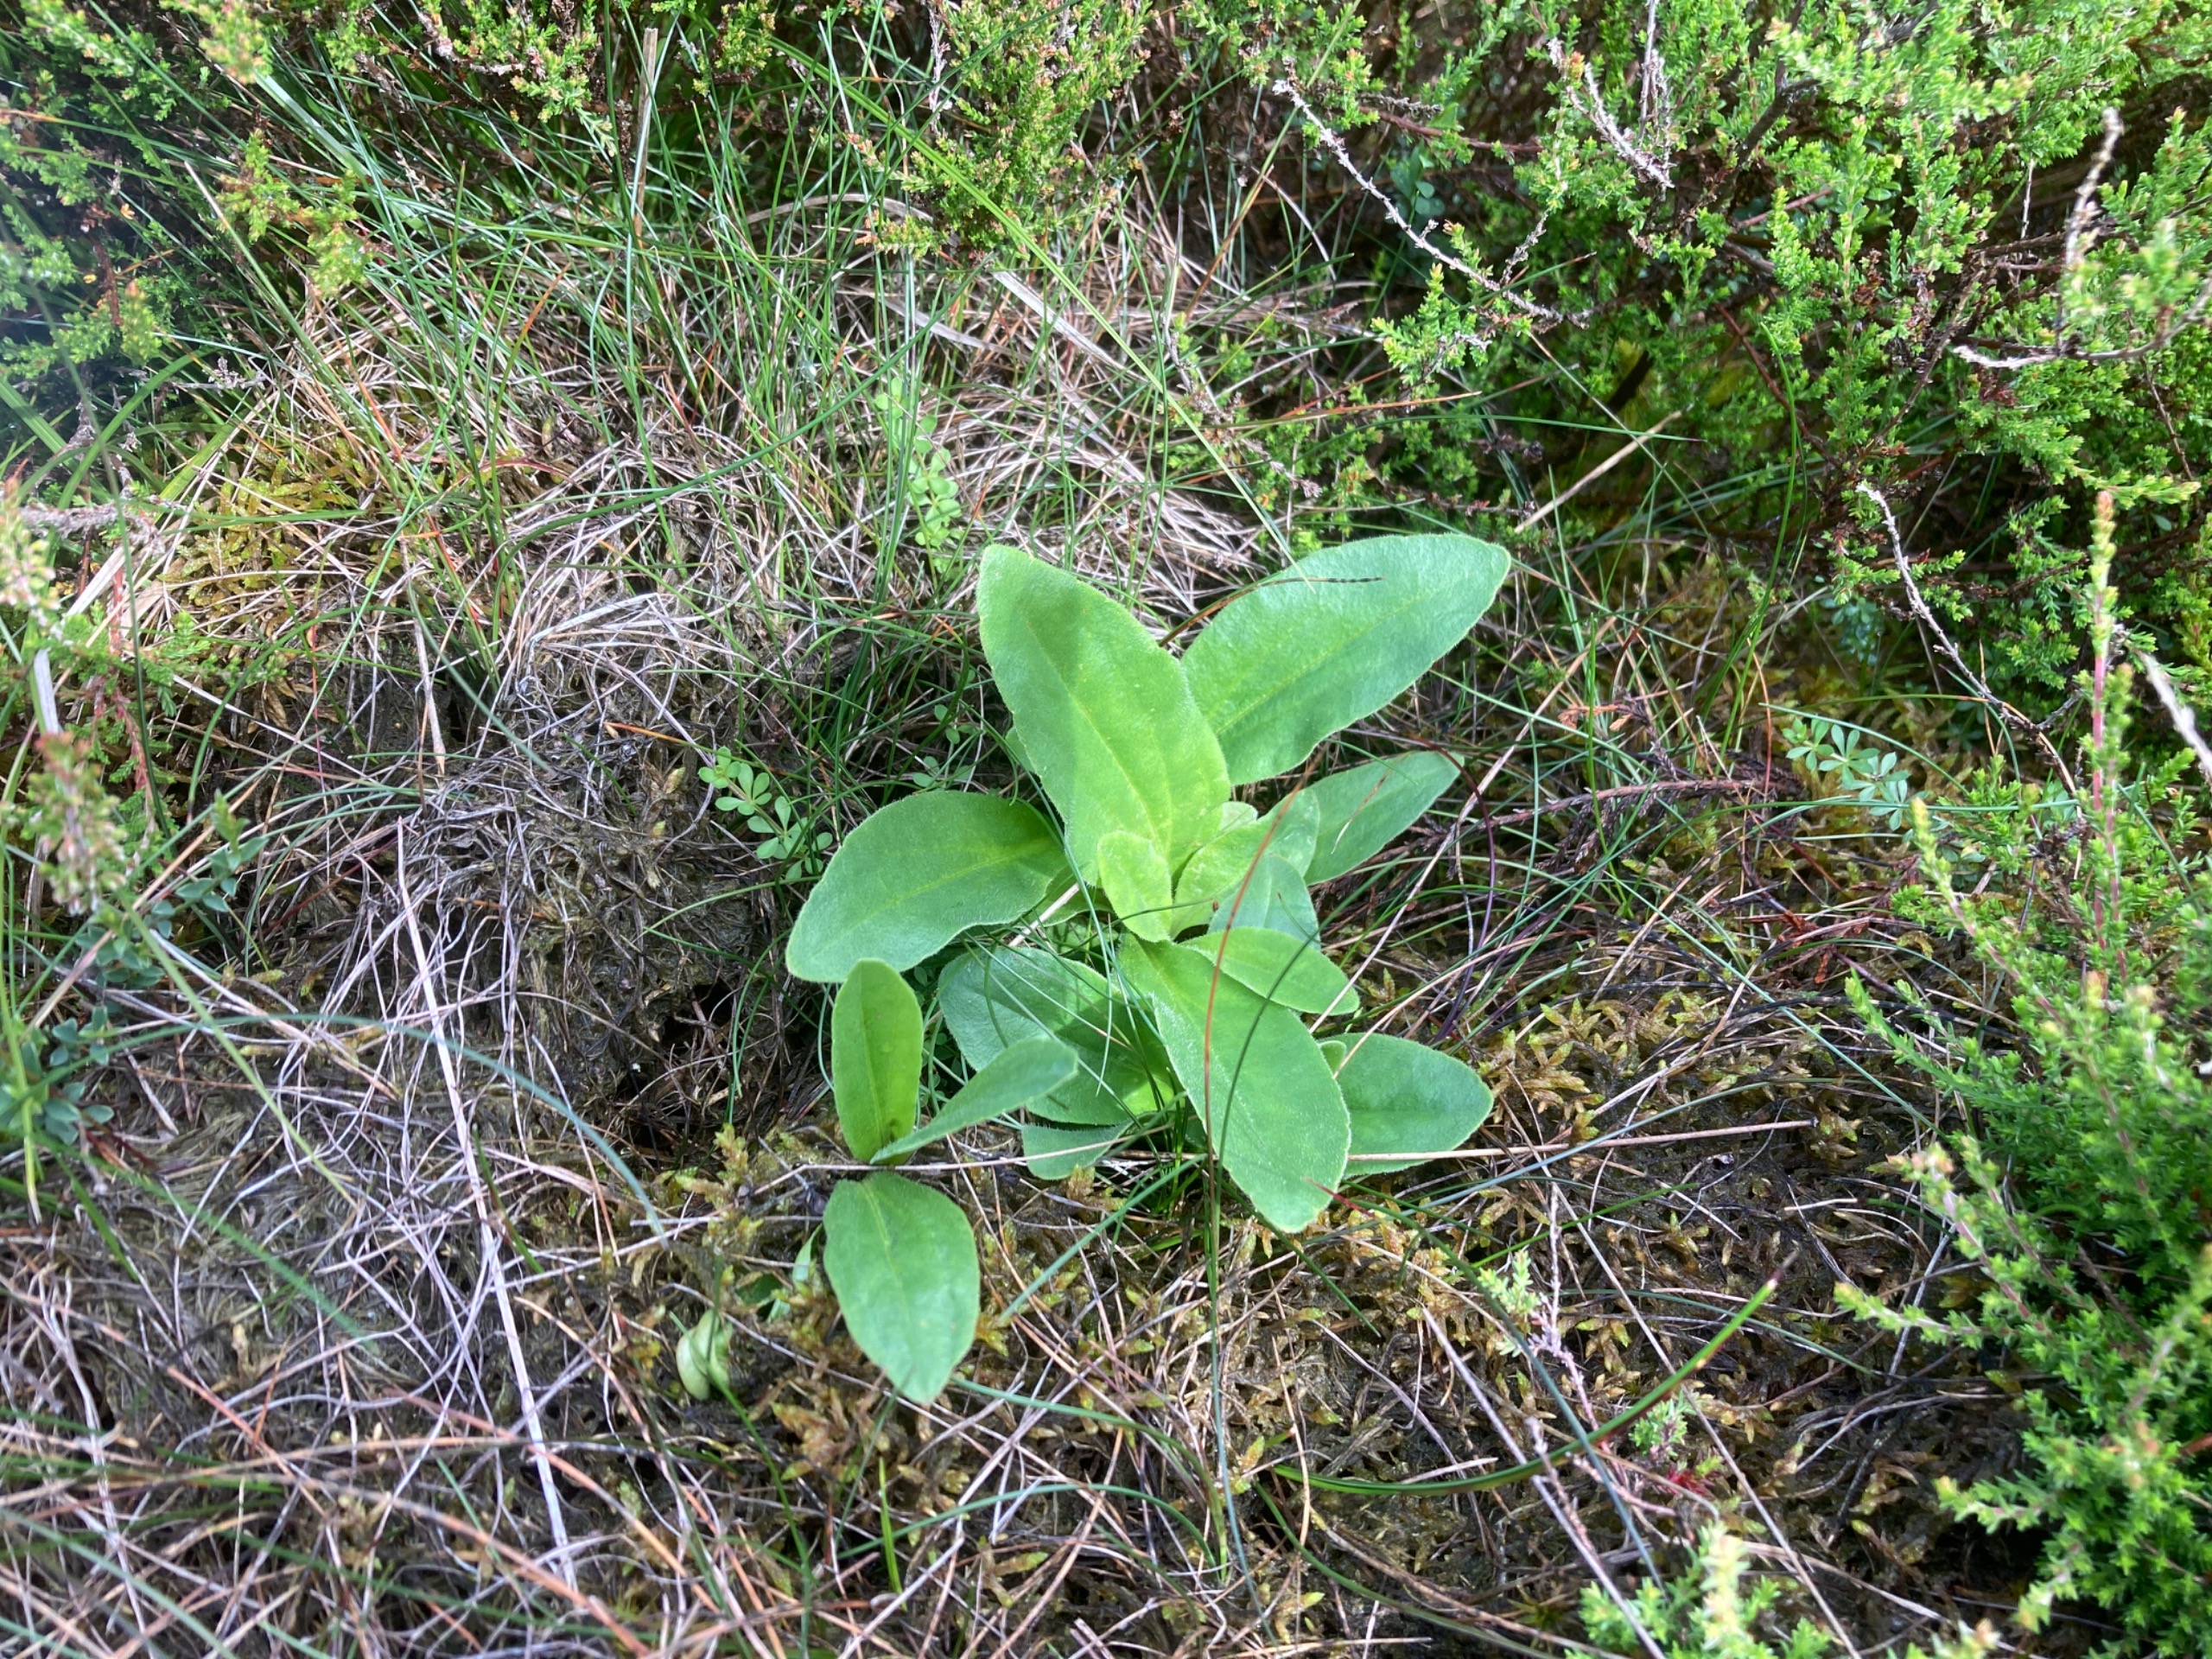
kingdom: Plantae
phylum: Tracheophyta
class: Magnoliopsida
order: Asterales
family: Asteraceae
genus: Arnica
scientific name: Arnica montana
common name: Guldblomme
